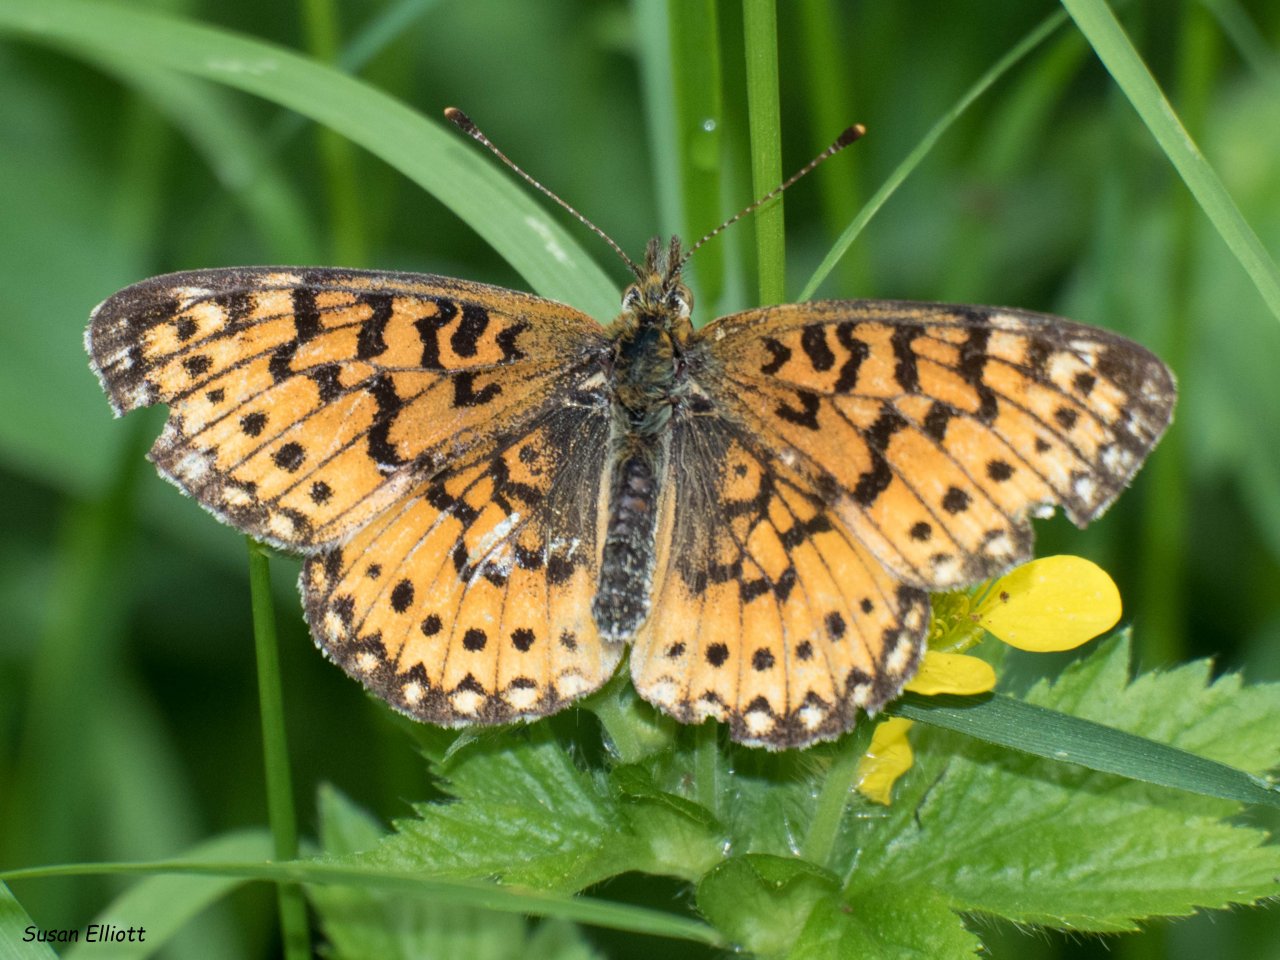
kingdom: Animalia
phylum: Arthropoda
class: Insecta
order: Lepidoptera
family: Nymphalidae
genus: Boloria
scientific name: Boloria selene
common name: Silver-bordered Fritillary
